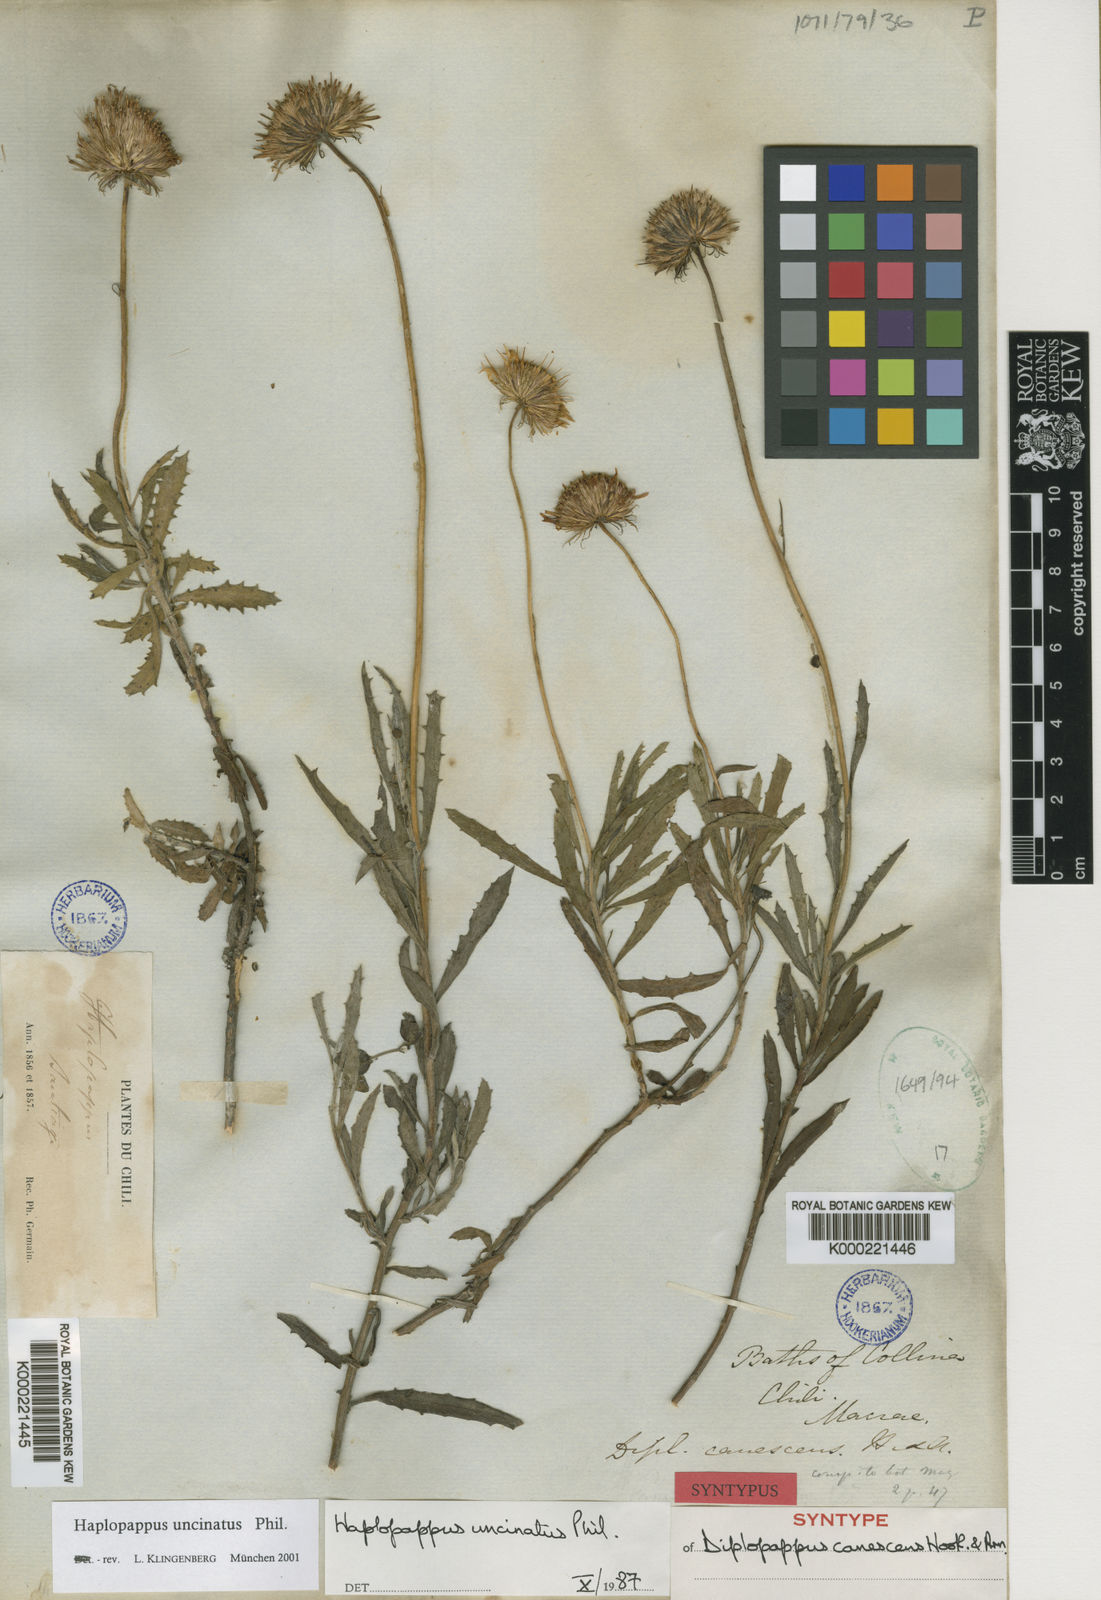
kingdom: Plantae
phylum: Tracheophyta
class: Magnoliopsida
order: Asterales
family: Asteraceae
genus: Haplopappus
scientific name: Haplopappus uncinatus
